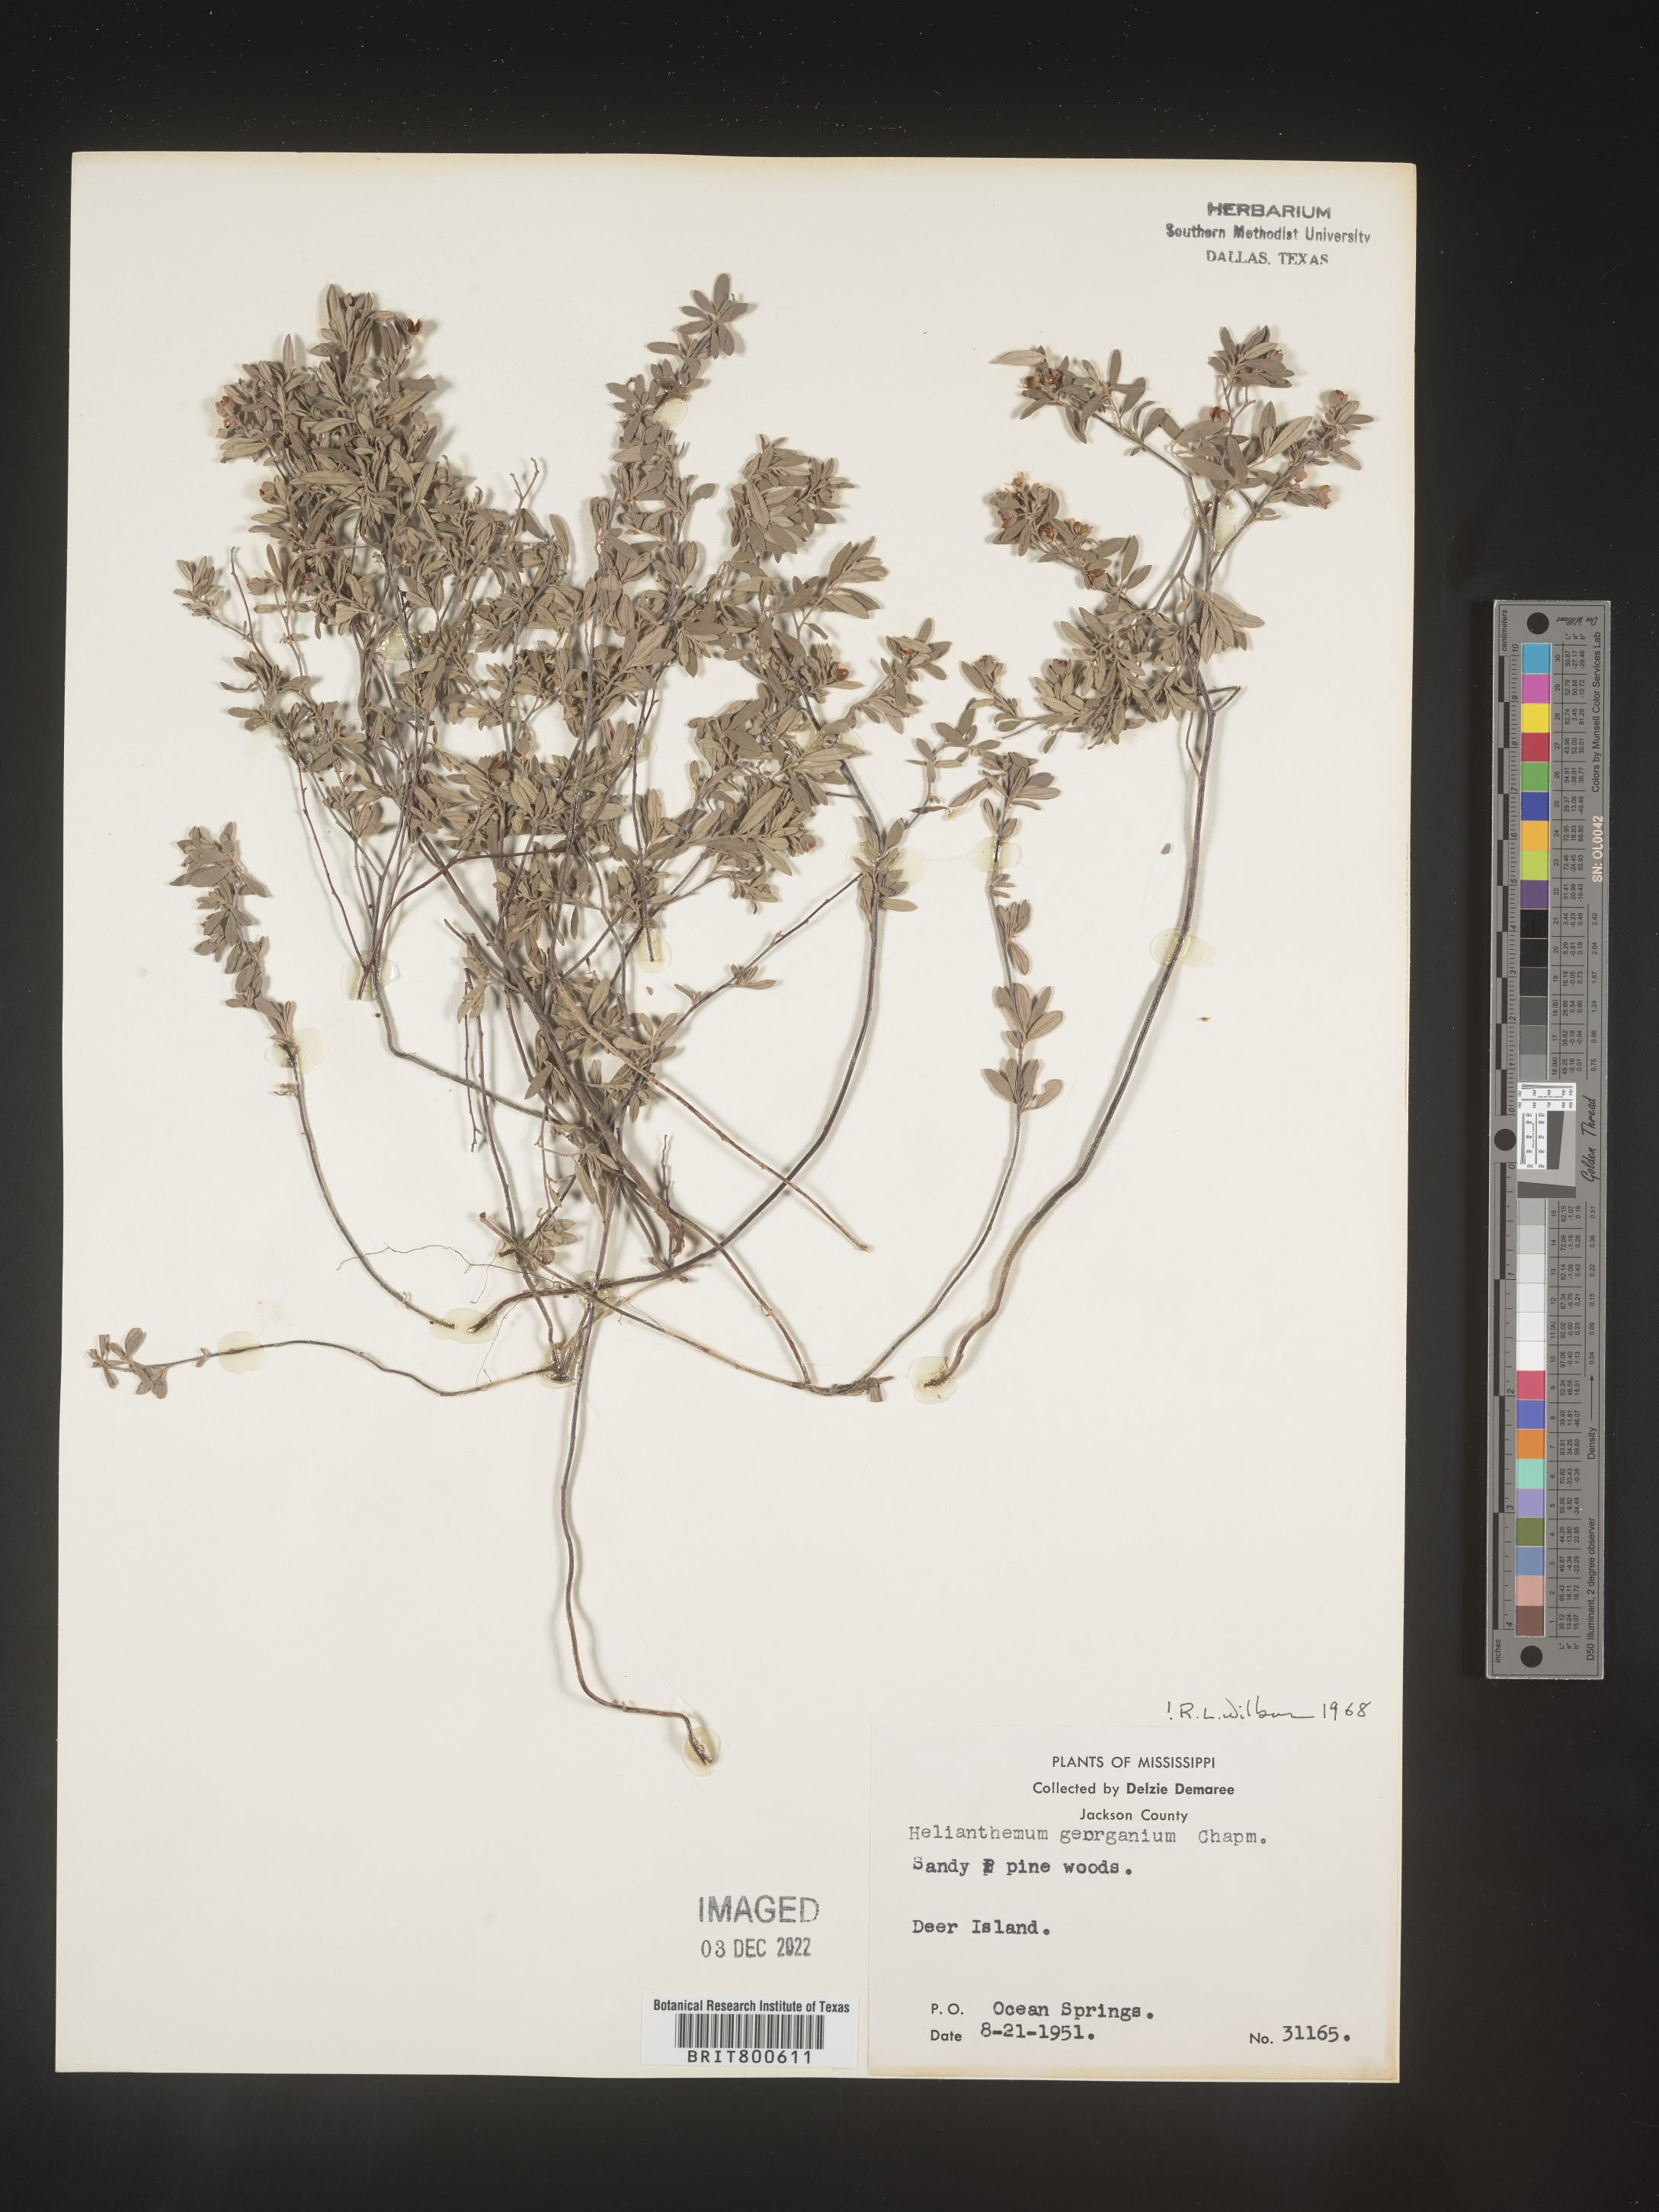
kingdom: Plantae
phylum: Tracheophyta
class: Magnoliopsida
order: Malvales
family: Cistaceae
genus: Crocanthemum
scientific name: Crocanthemum georgianum
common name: Georgia frostweed
